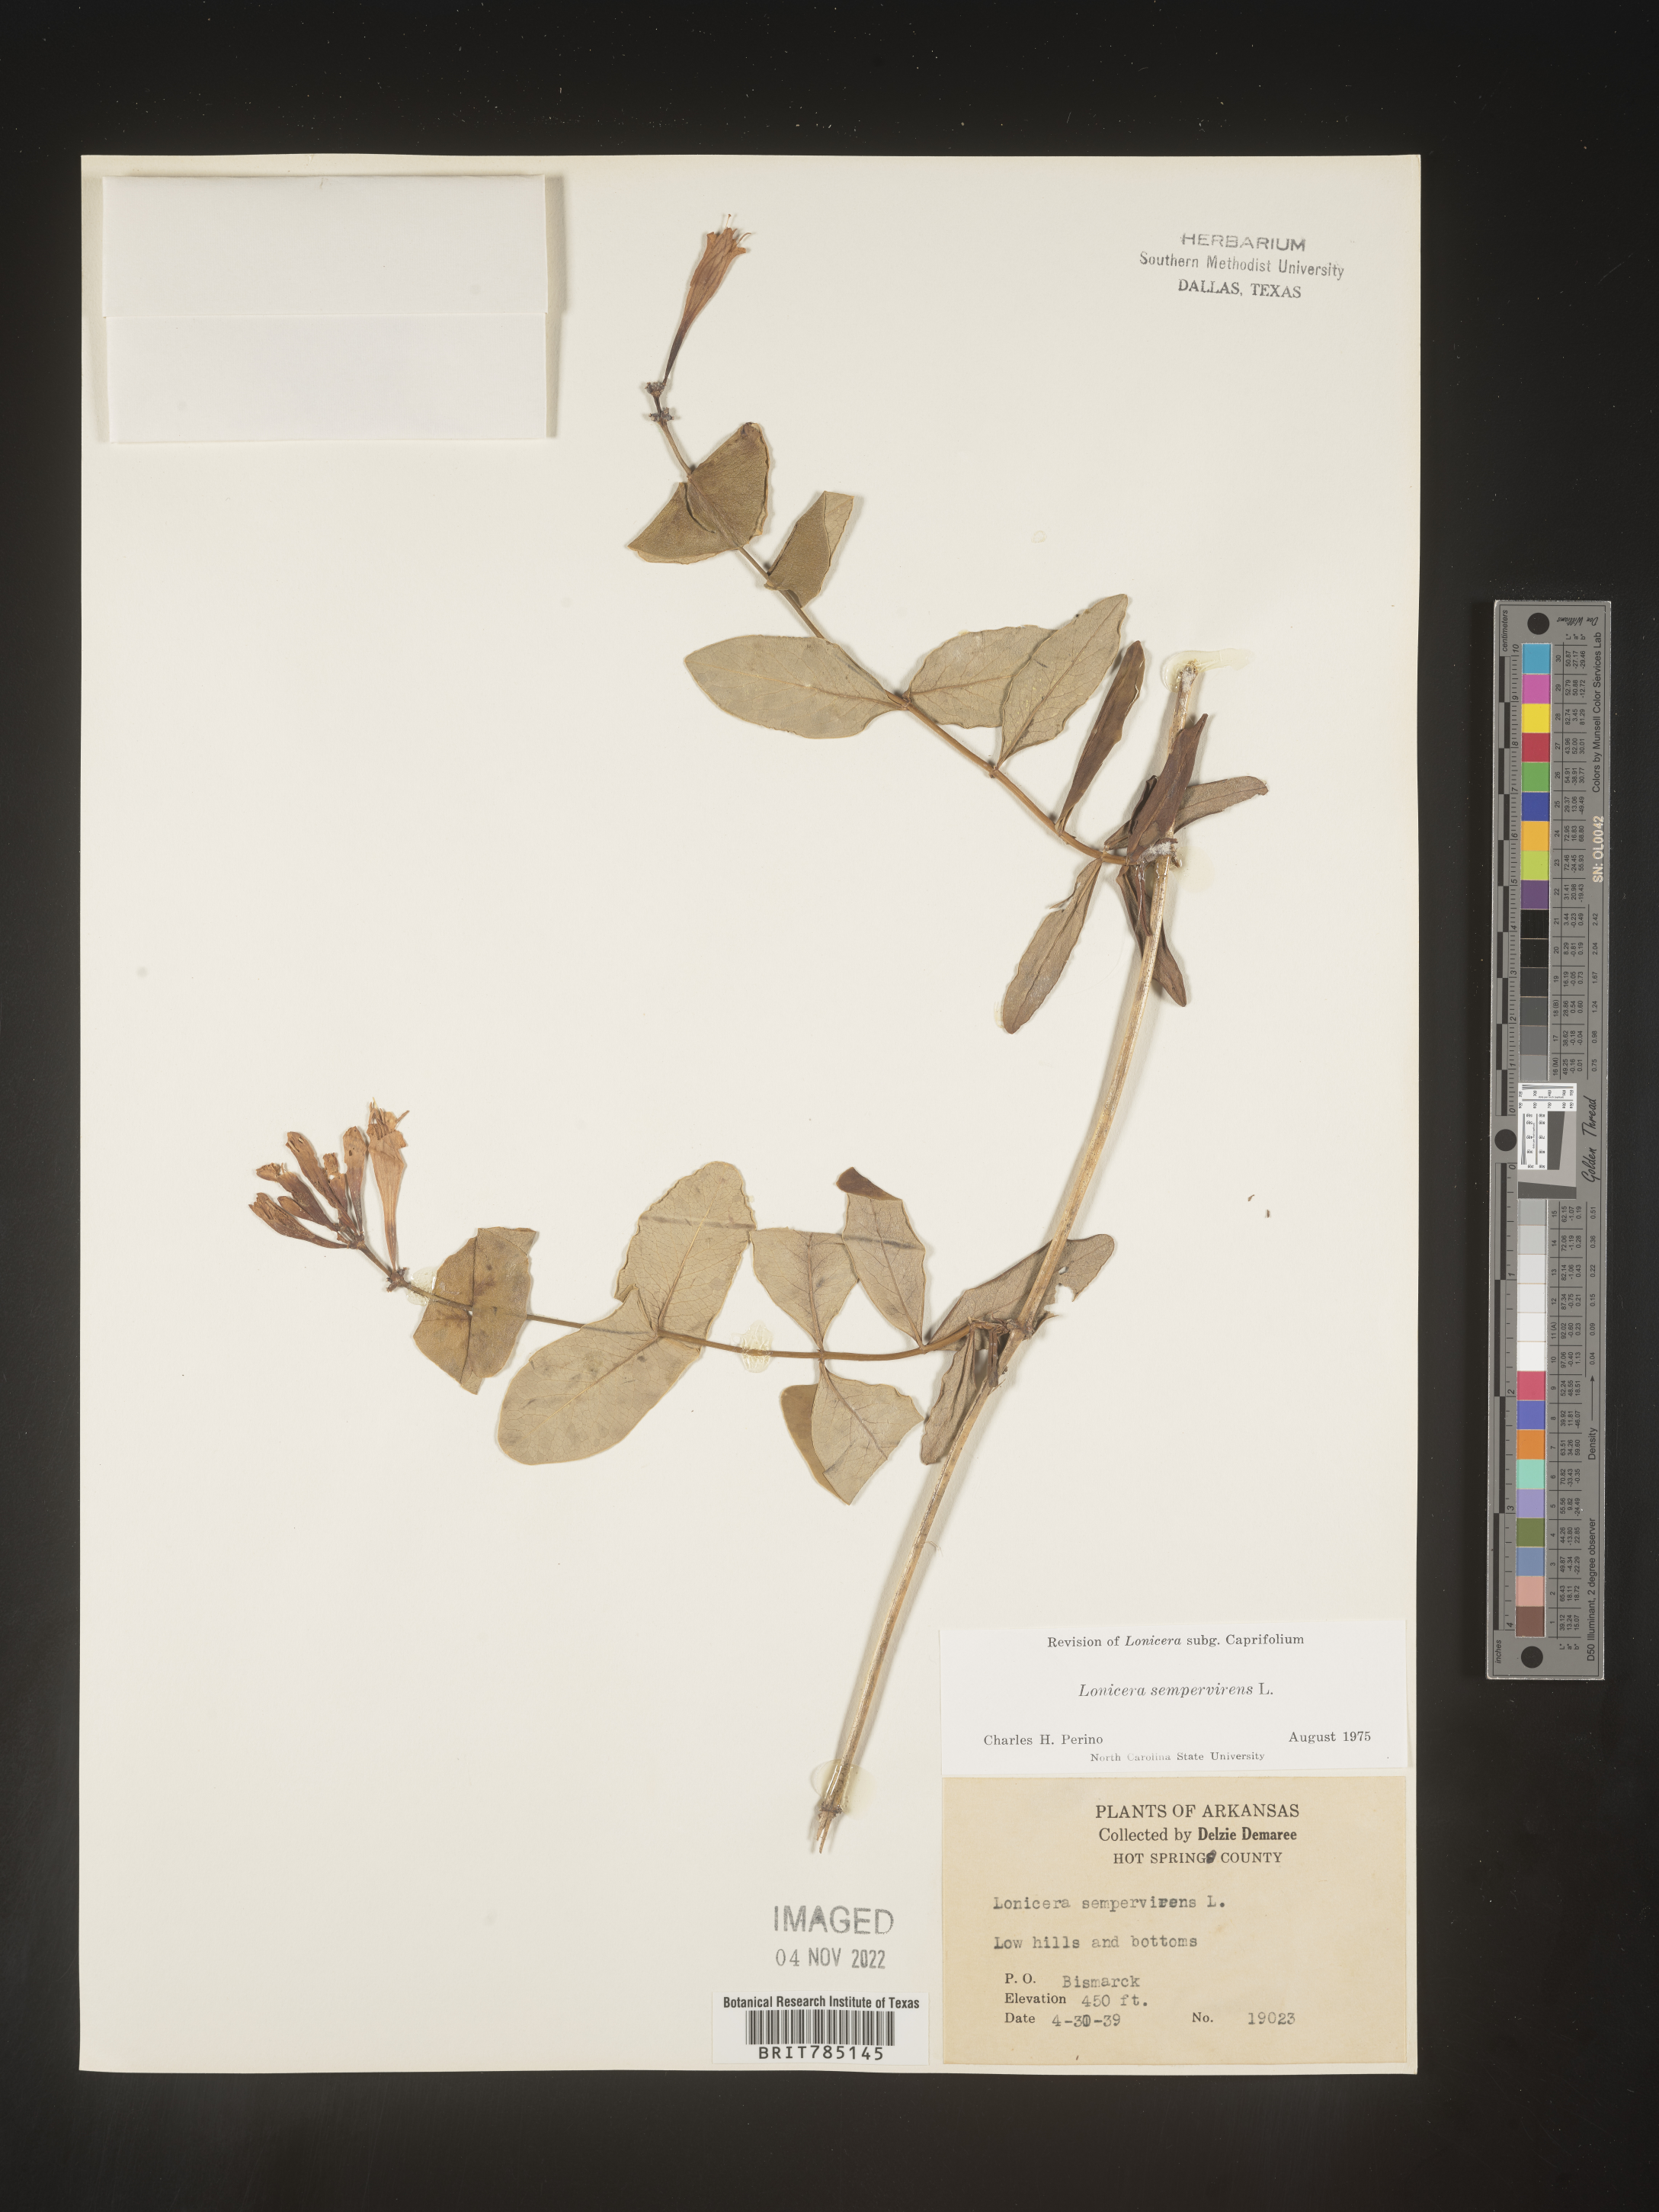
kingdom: Plantae
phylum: Tracheophyta
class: Magnoliopsida
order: Dipsacales
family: Caprifoliaceae
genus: Lonicera
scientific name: Lonicera sempervirens
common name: Coral honeysuckle
